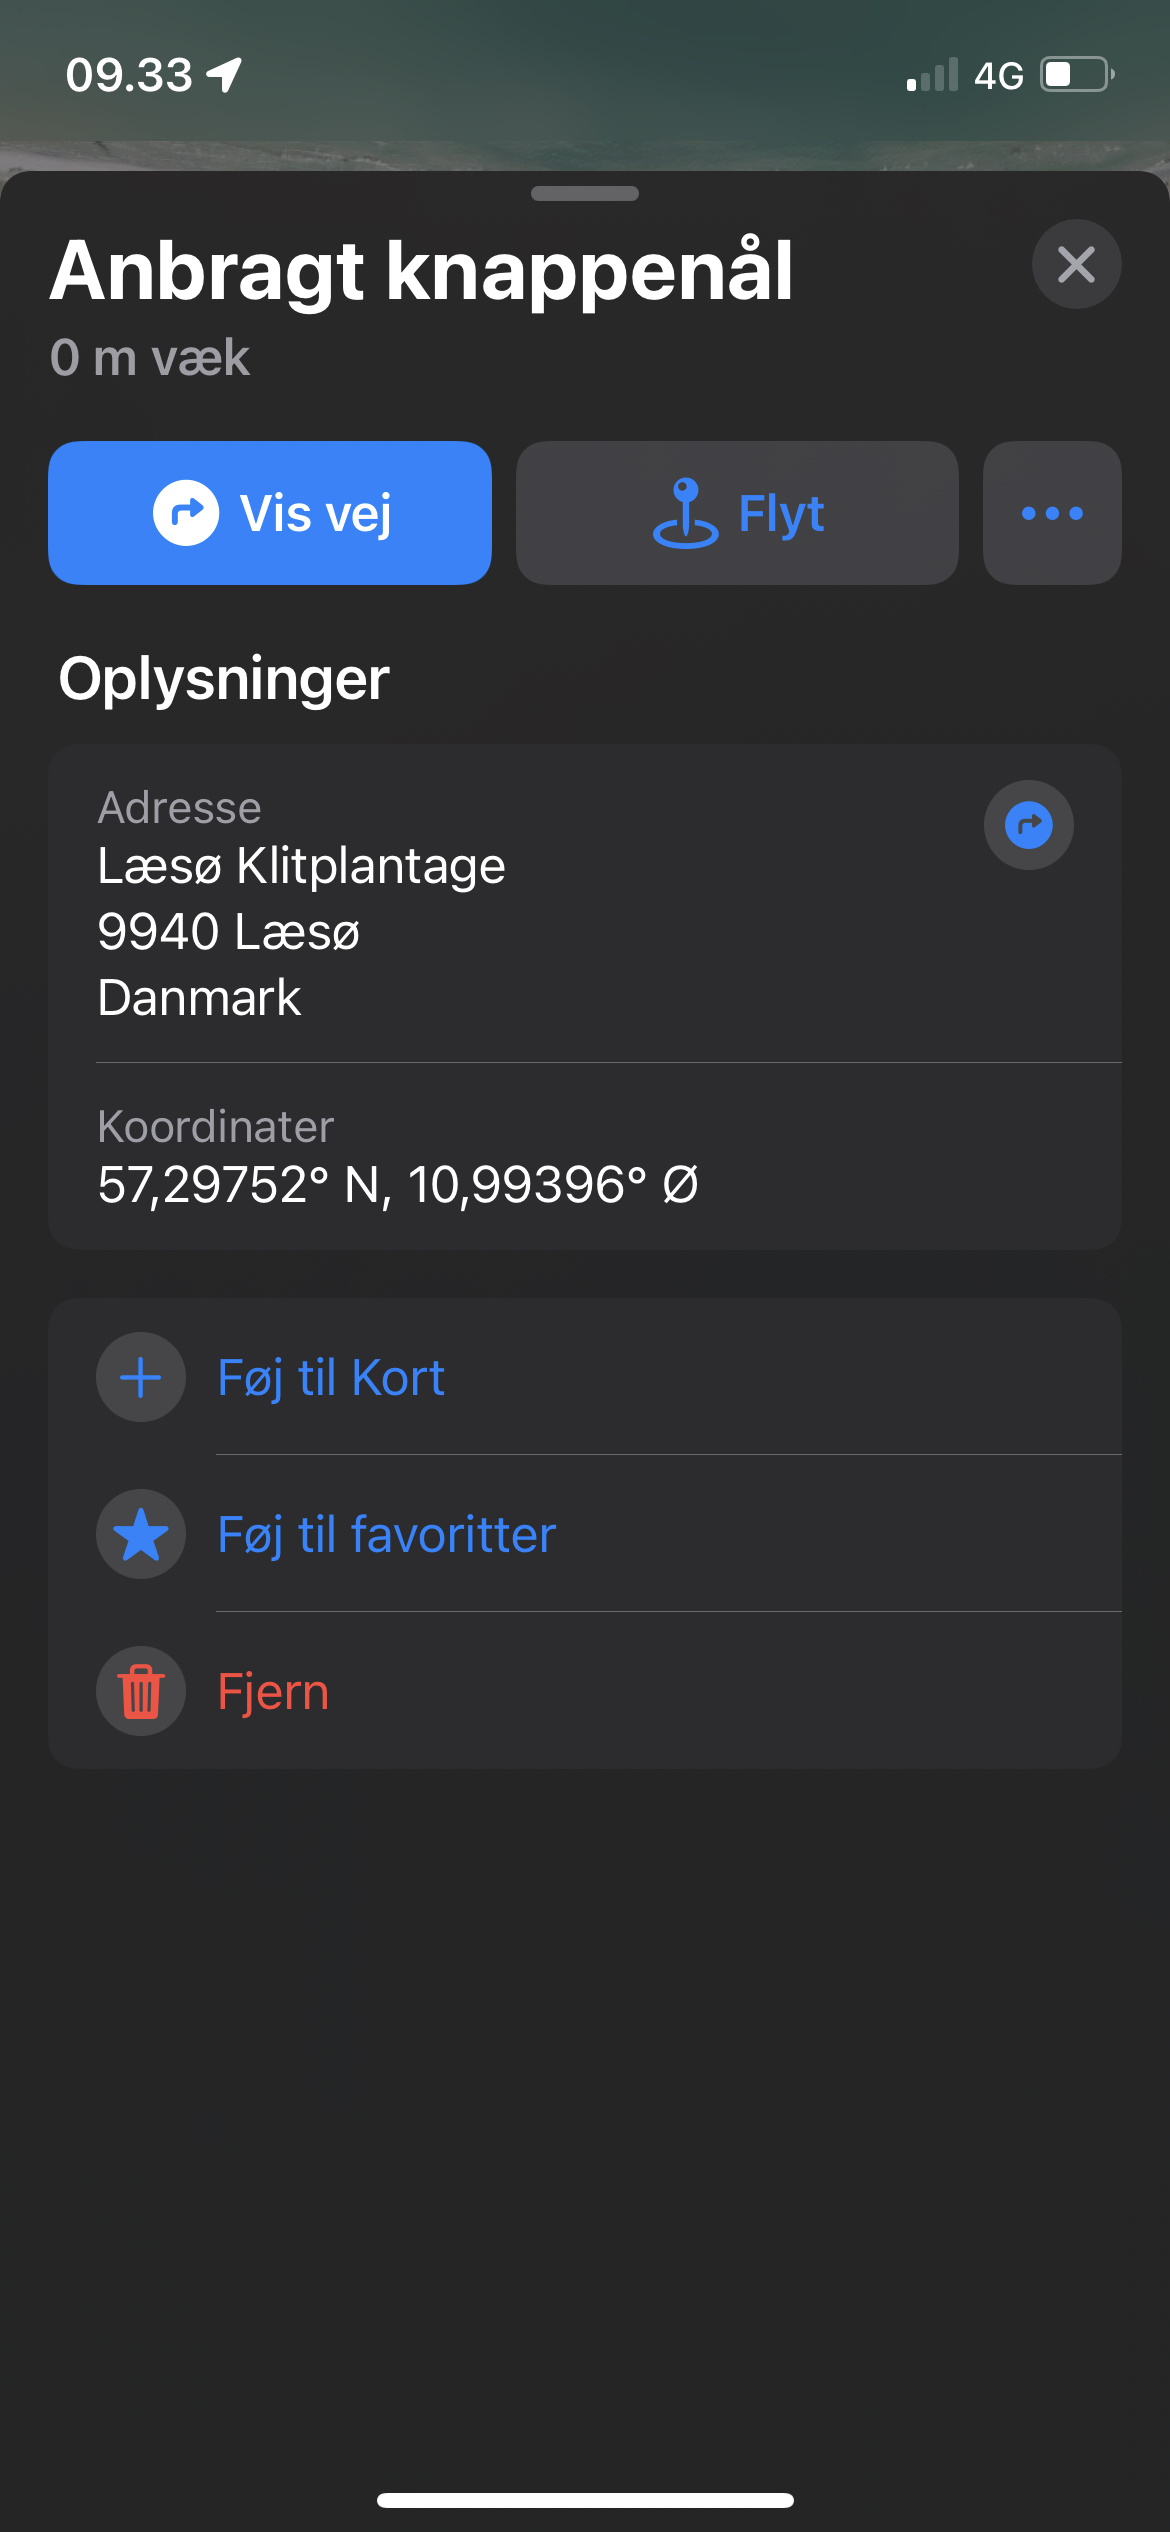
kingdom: Fungi
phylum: Basidiomycota
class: Agaricomycetes
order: Thelephorales
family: Bankeraceae
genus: Sarcodon
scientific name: Sarcodon squamosus
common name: småskællet kødpigsvamp
